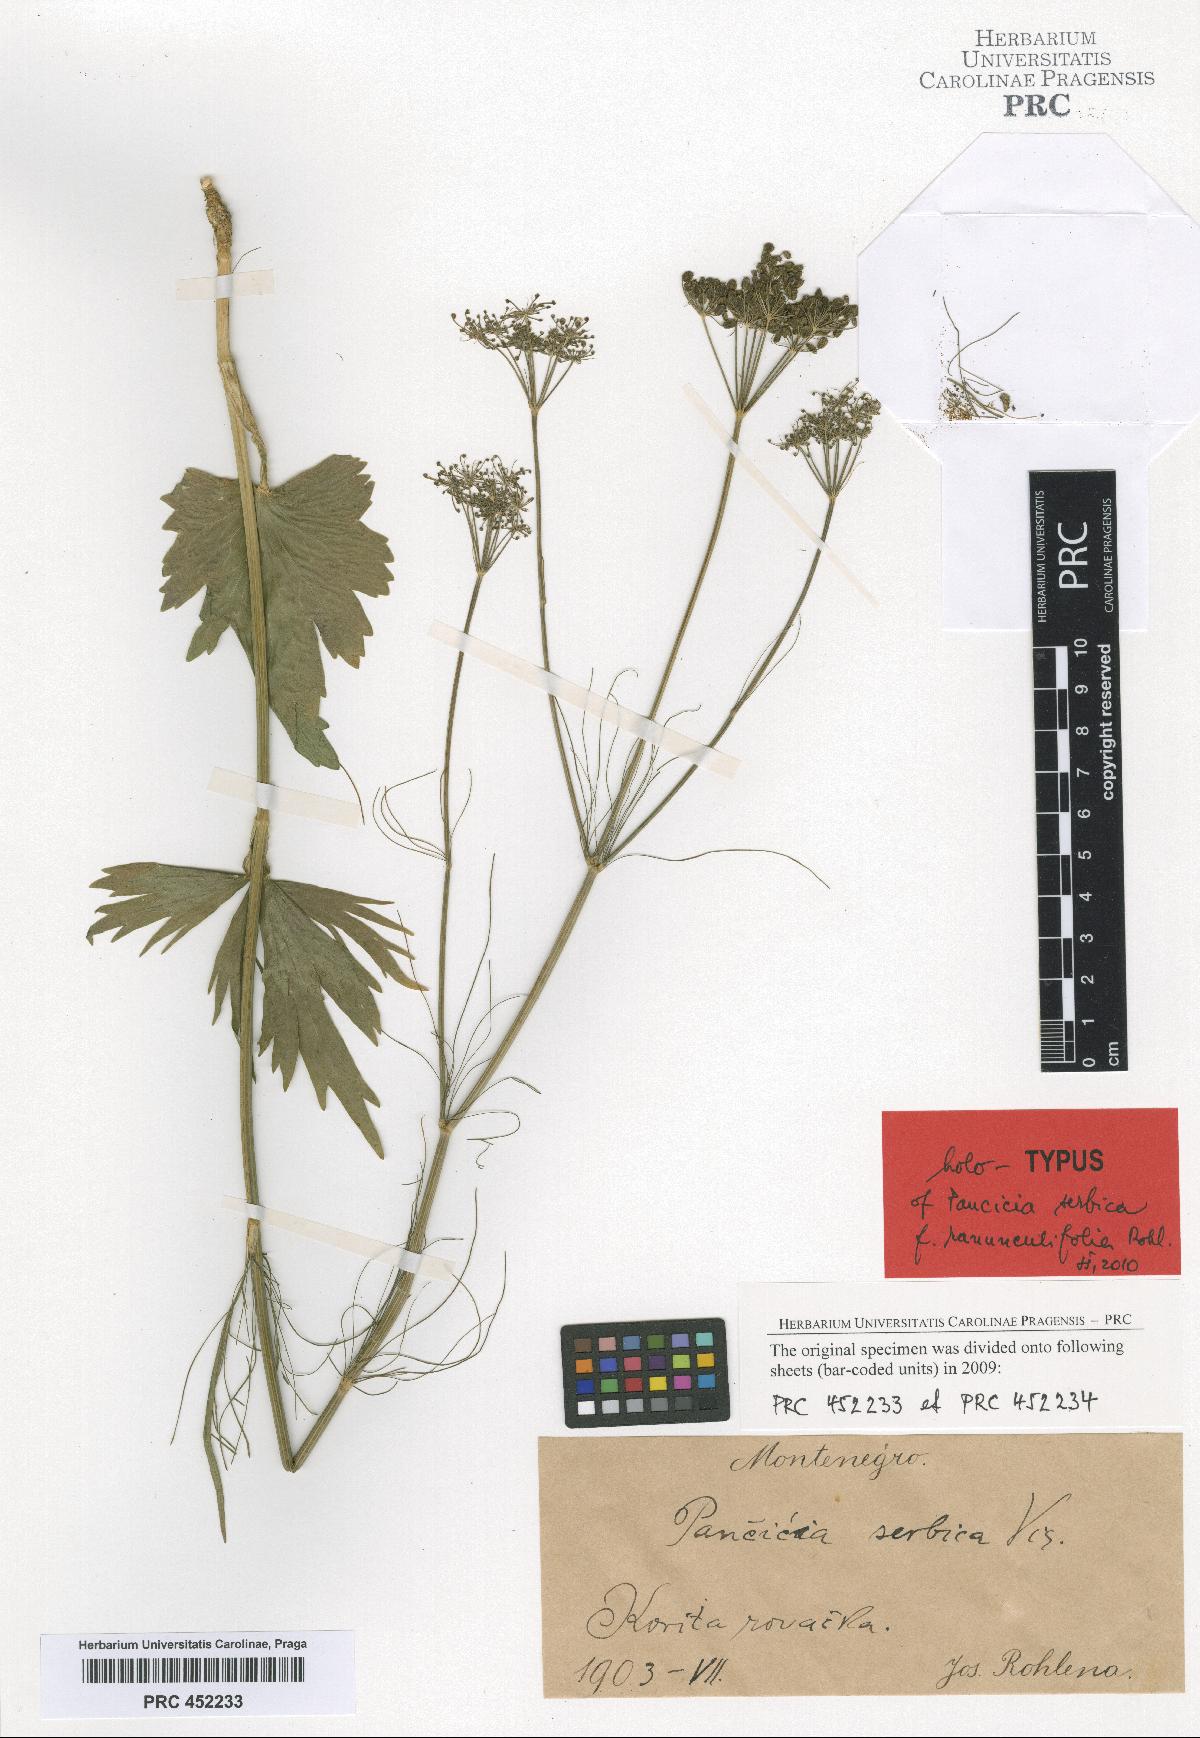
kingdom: Plantae
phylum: Tracheophyta
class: Magnoliopsida
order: Apiales
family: Apiaceae
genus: Pimpinella
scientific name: Pimpinella serbica
